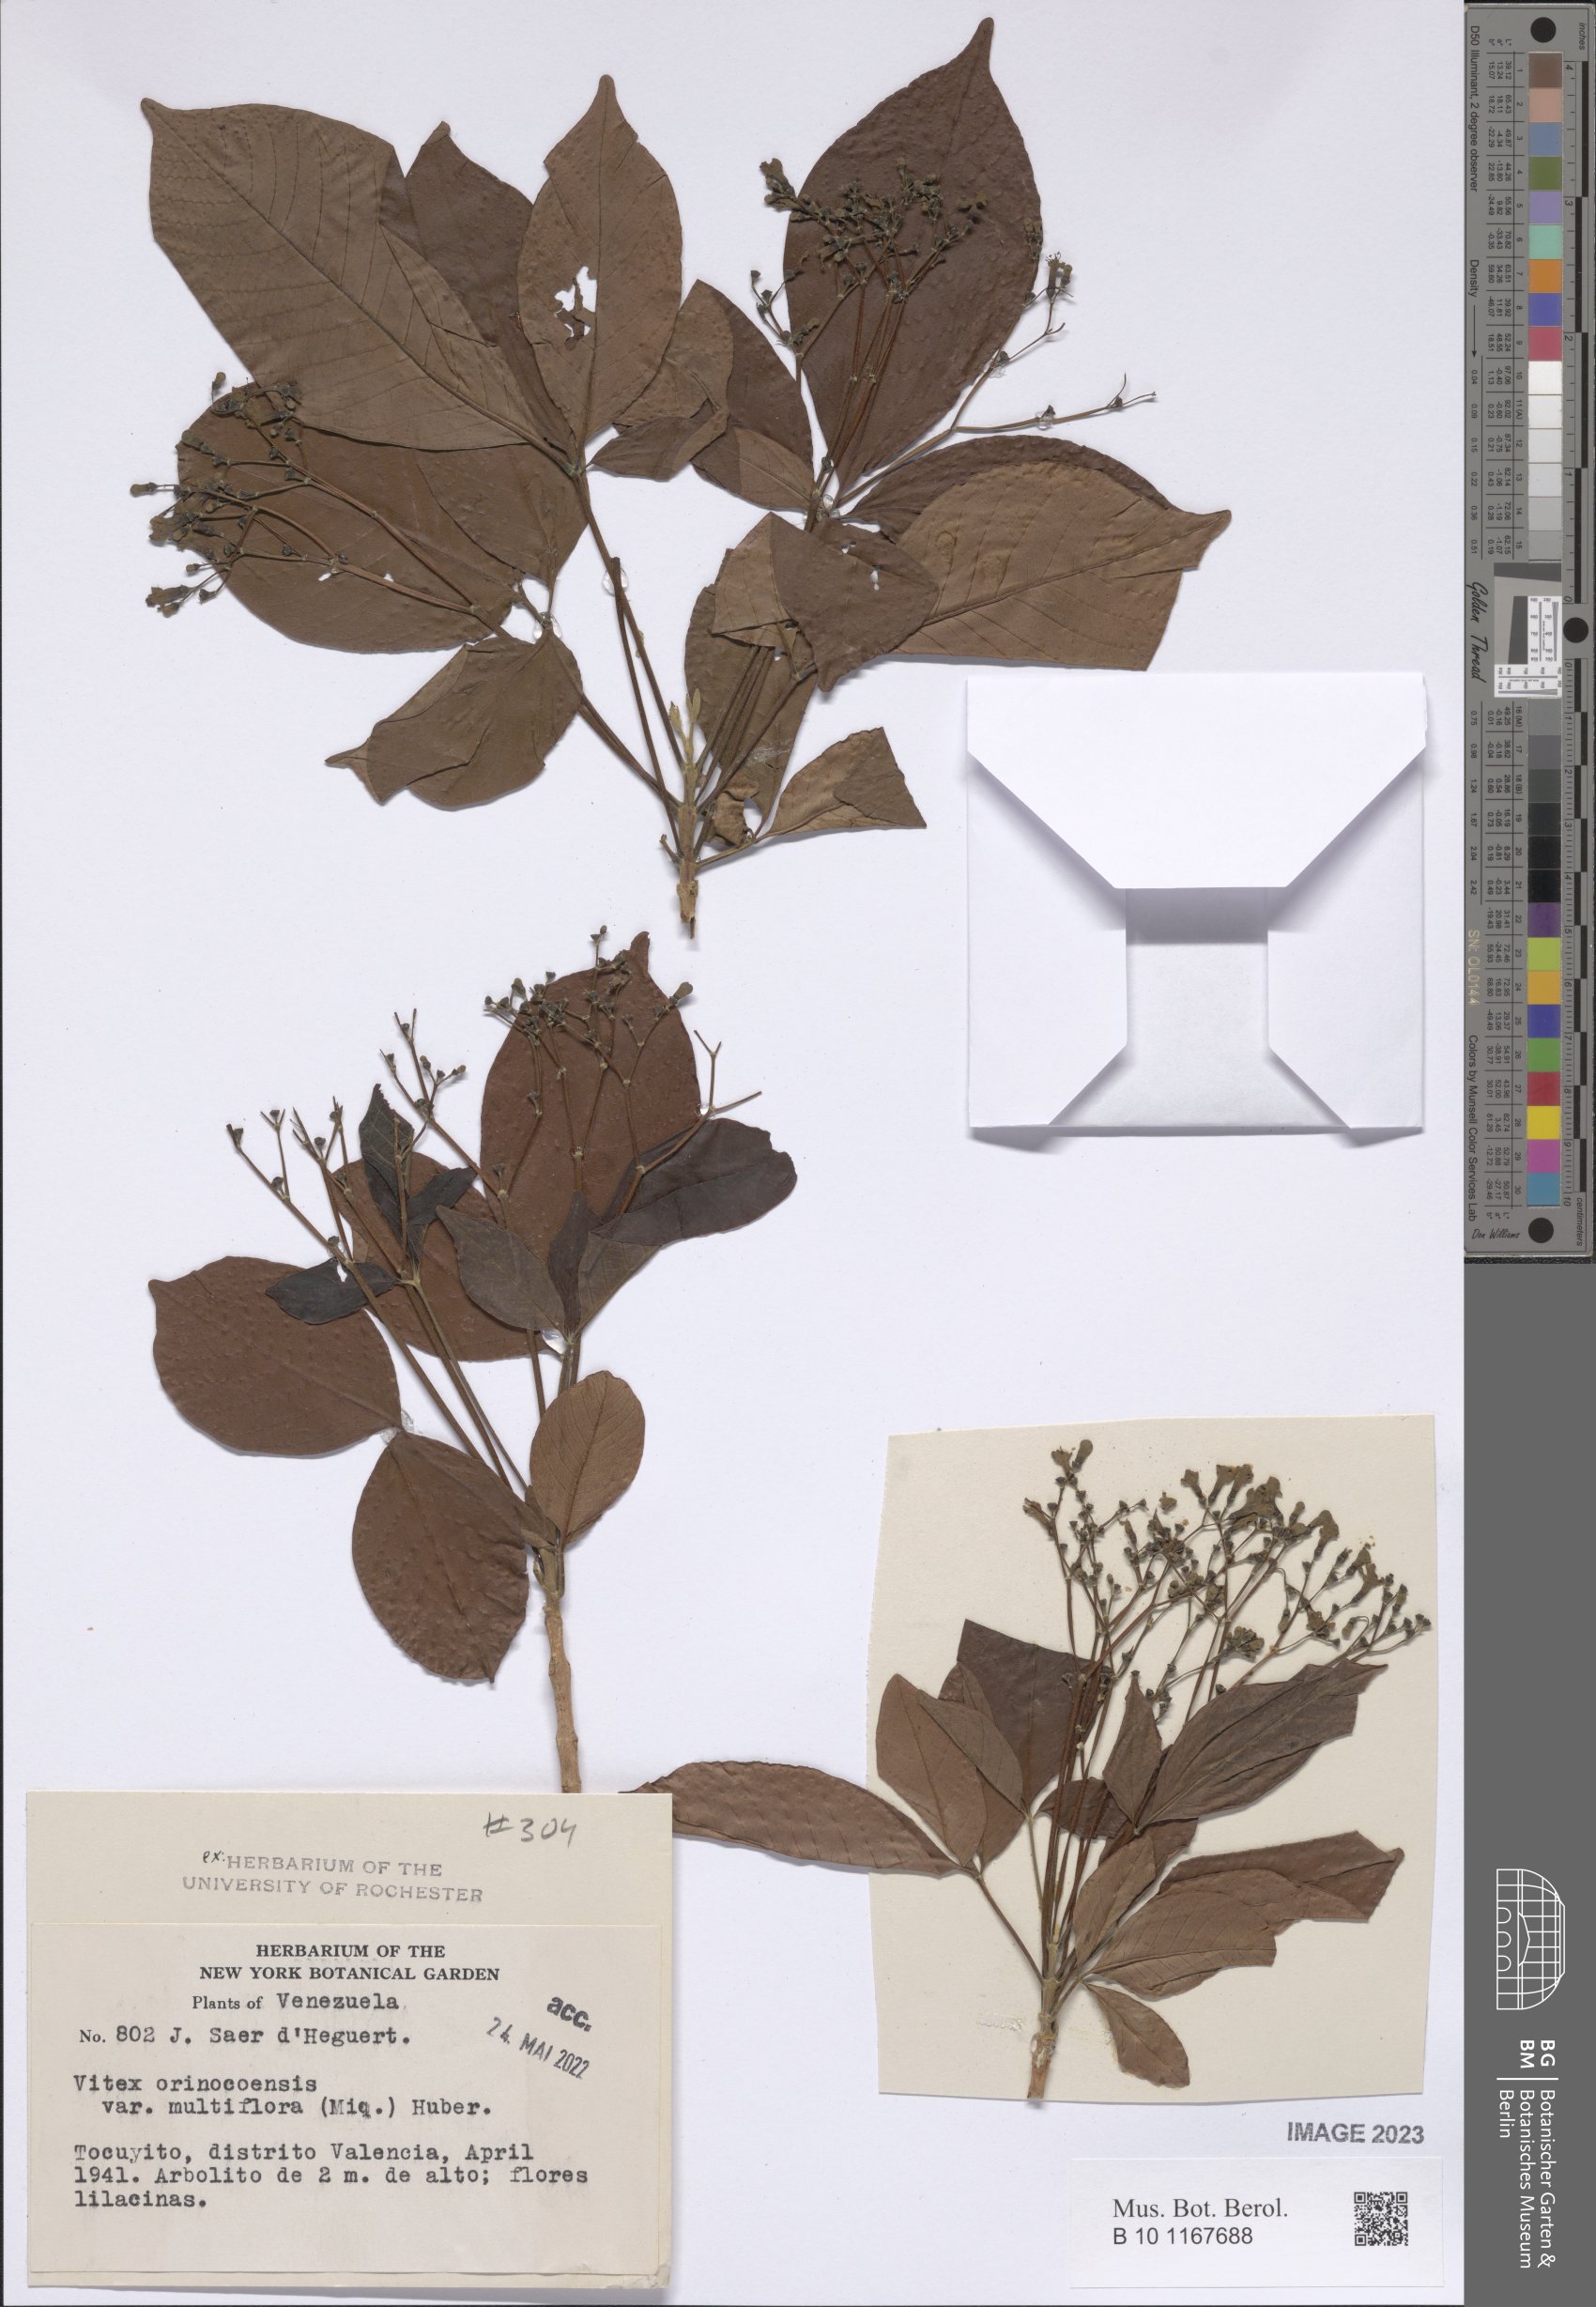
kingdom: Plantae
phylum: Tracheophyta
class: Magnoliopsida
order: Lamiales
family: Lamiaceae
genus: Vitex
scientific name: Vitex orinocensis
